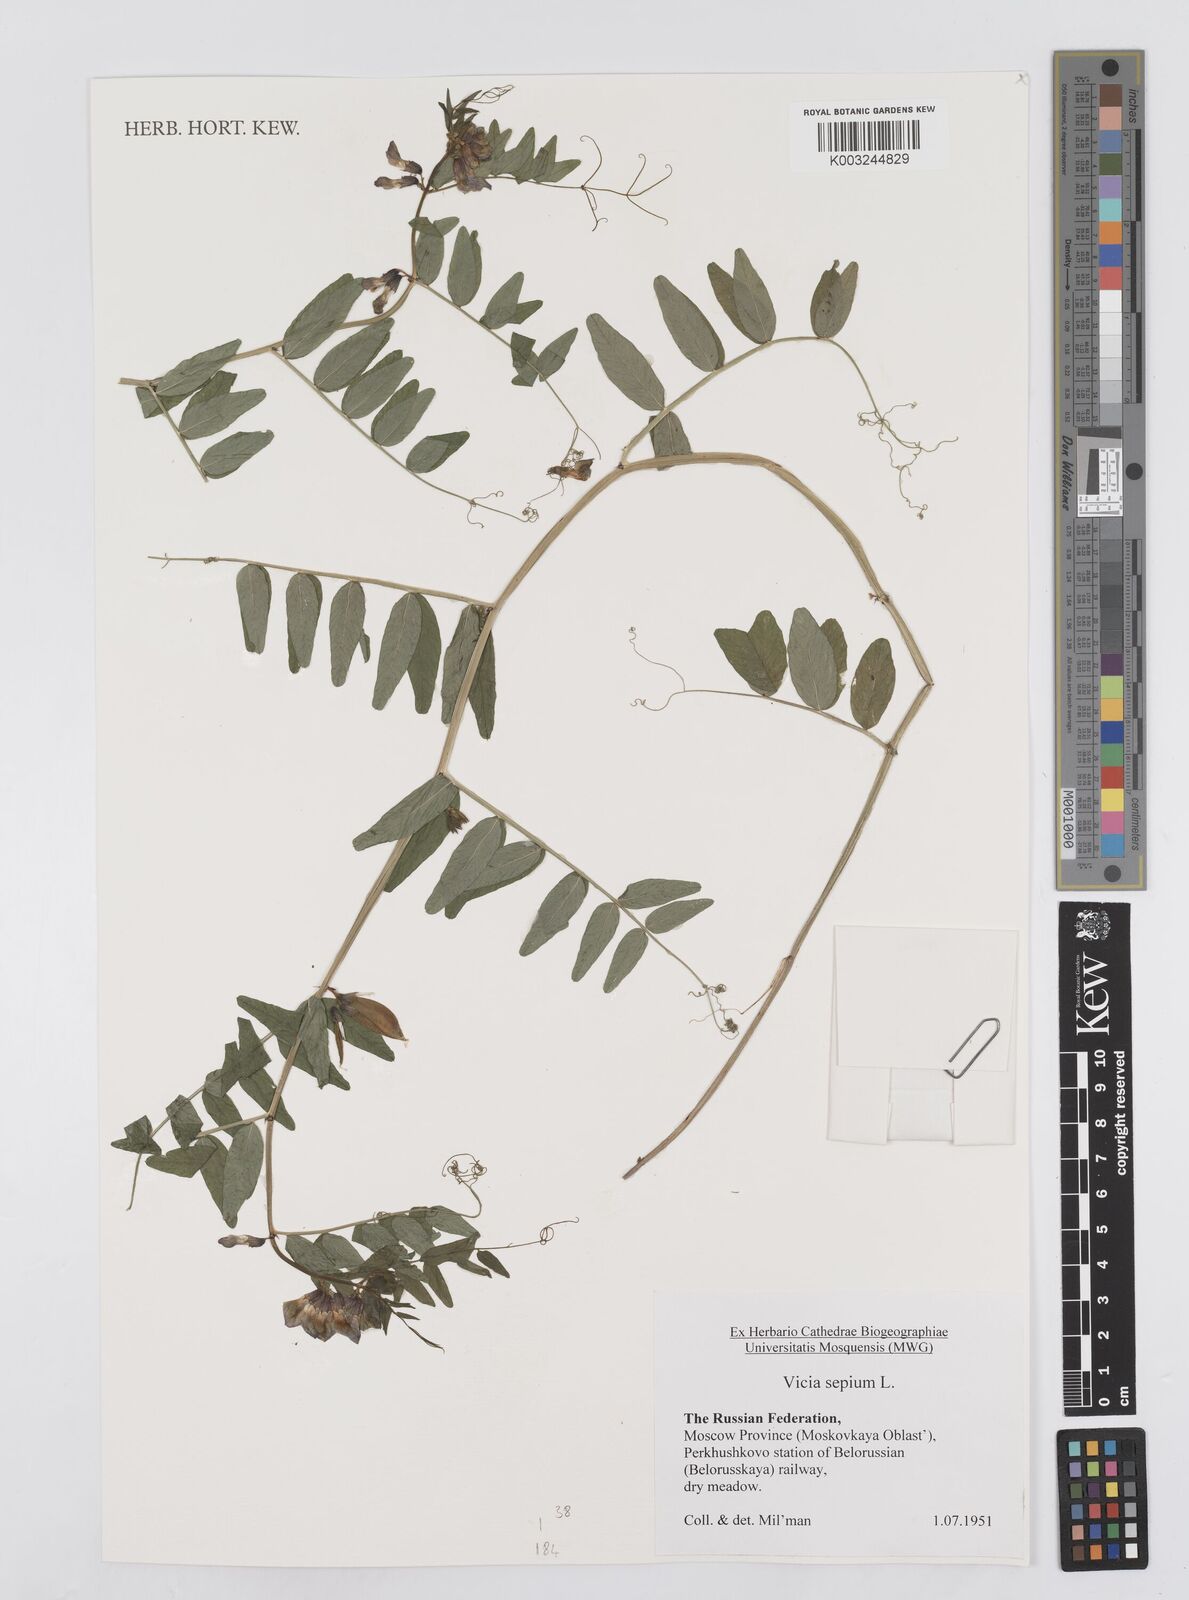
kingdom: Plantae
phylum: Tracheophyta
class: Magnoliopsida
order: Fabales
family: Fabaceae
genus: Vicia
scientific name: Vicia sepium
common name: Bush vetch
